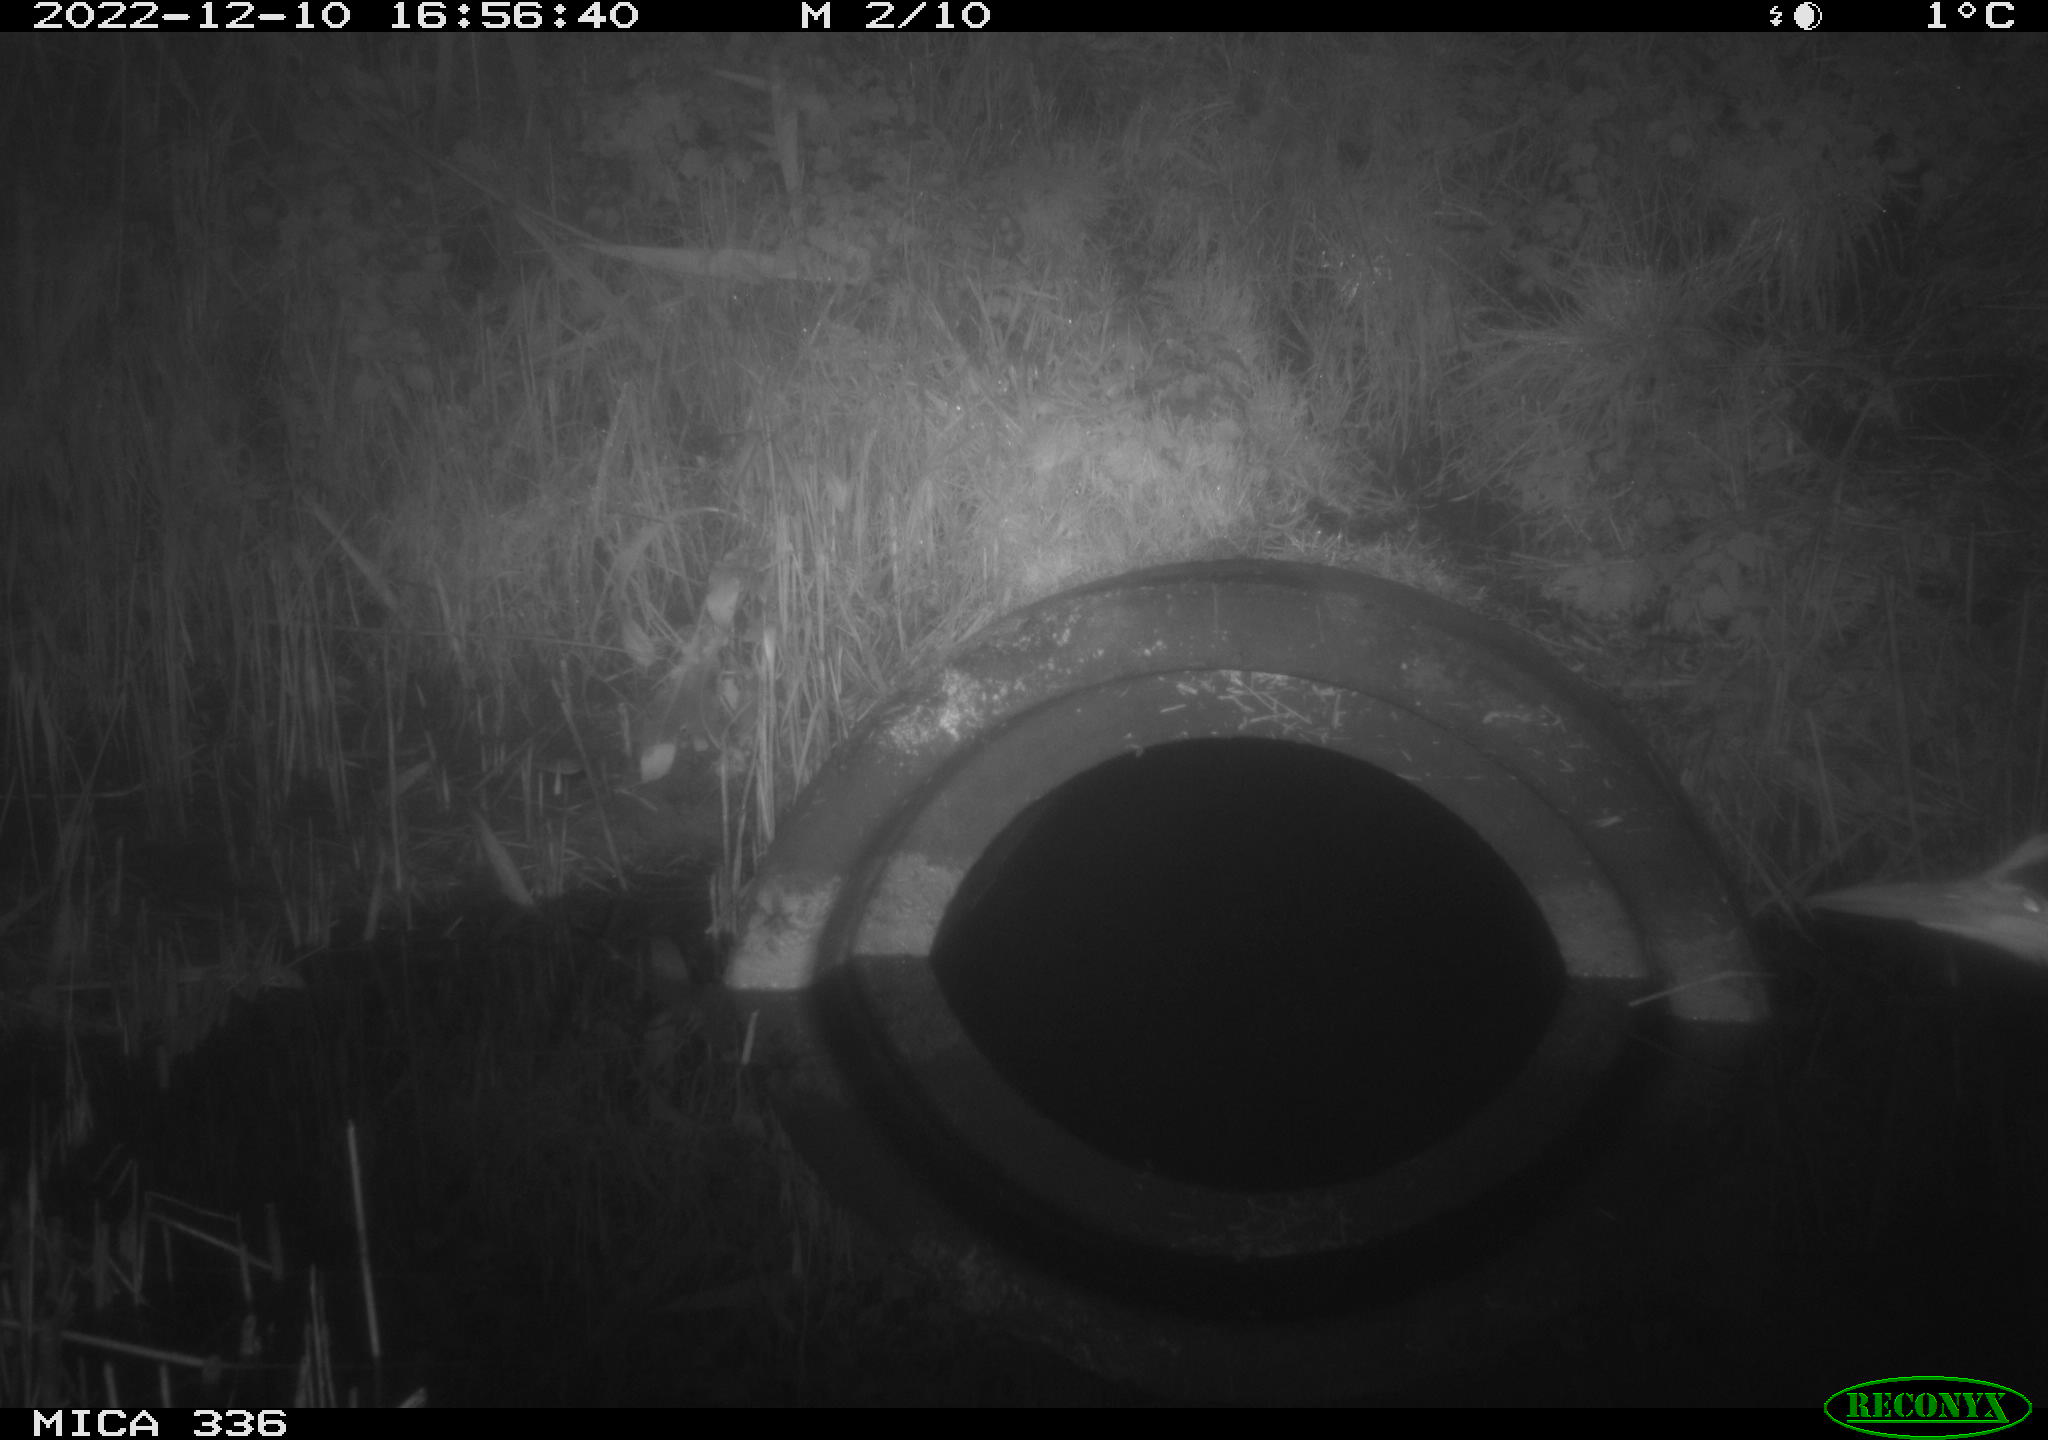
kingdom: Animalia
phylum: Chordata
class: Aves
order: Pelecaniformes
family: Ardeidae
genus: Ardea
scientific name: Ardea cinerea
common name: Grey heron
